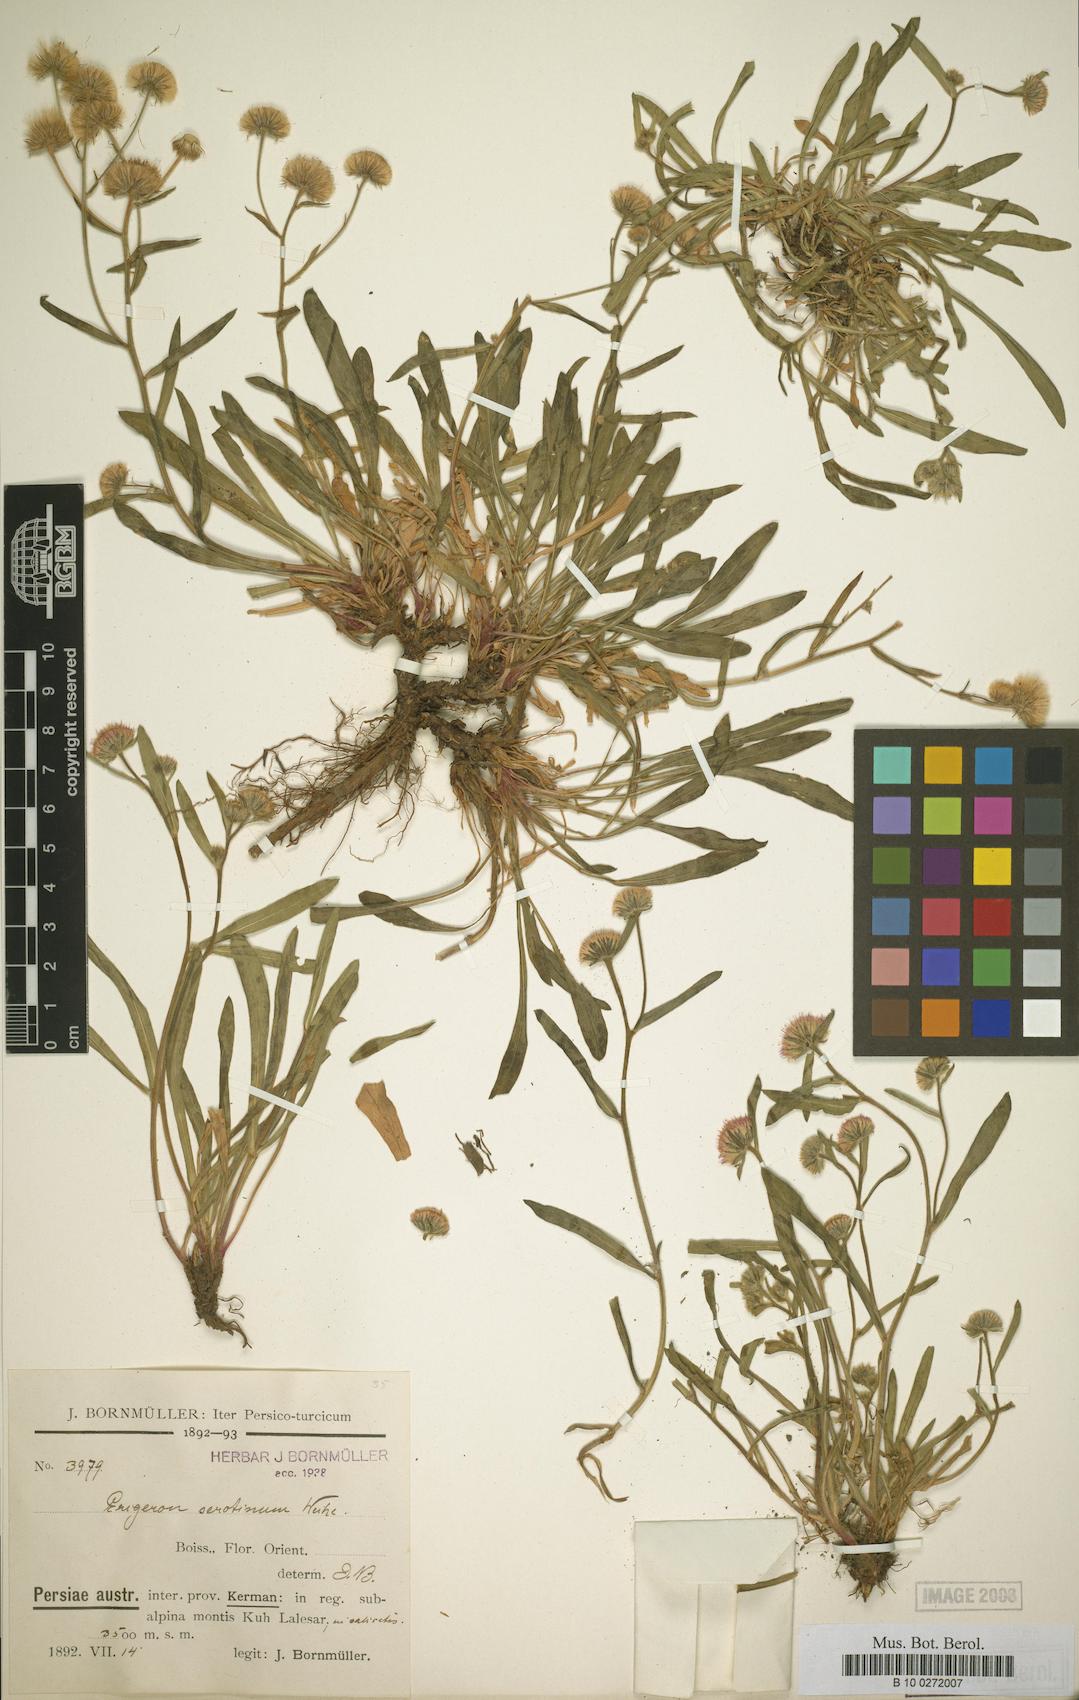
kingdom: Plantae
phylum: Tracheophyta
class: Magnoliopsida
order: Asterales
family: Asteraceae
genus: Erigeron
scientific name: Erigeron lalehzaricus
